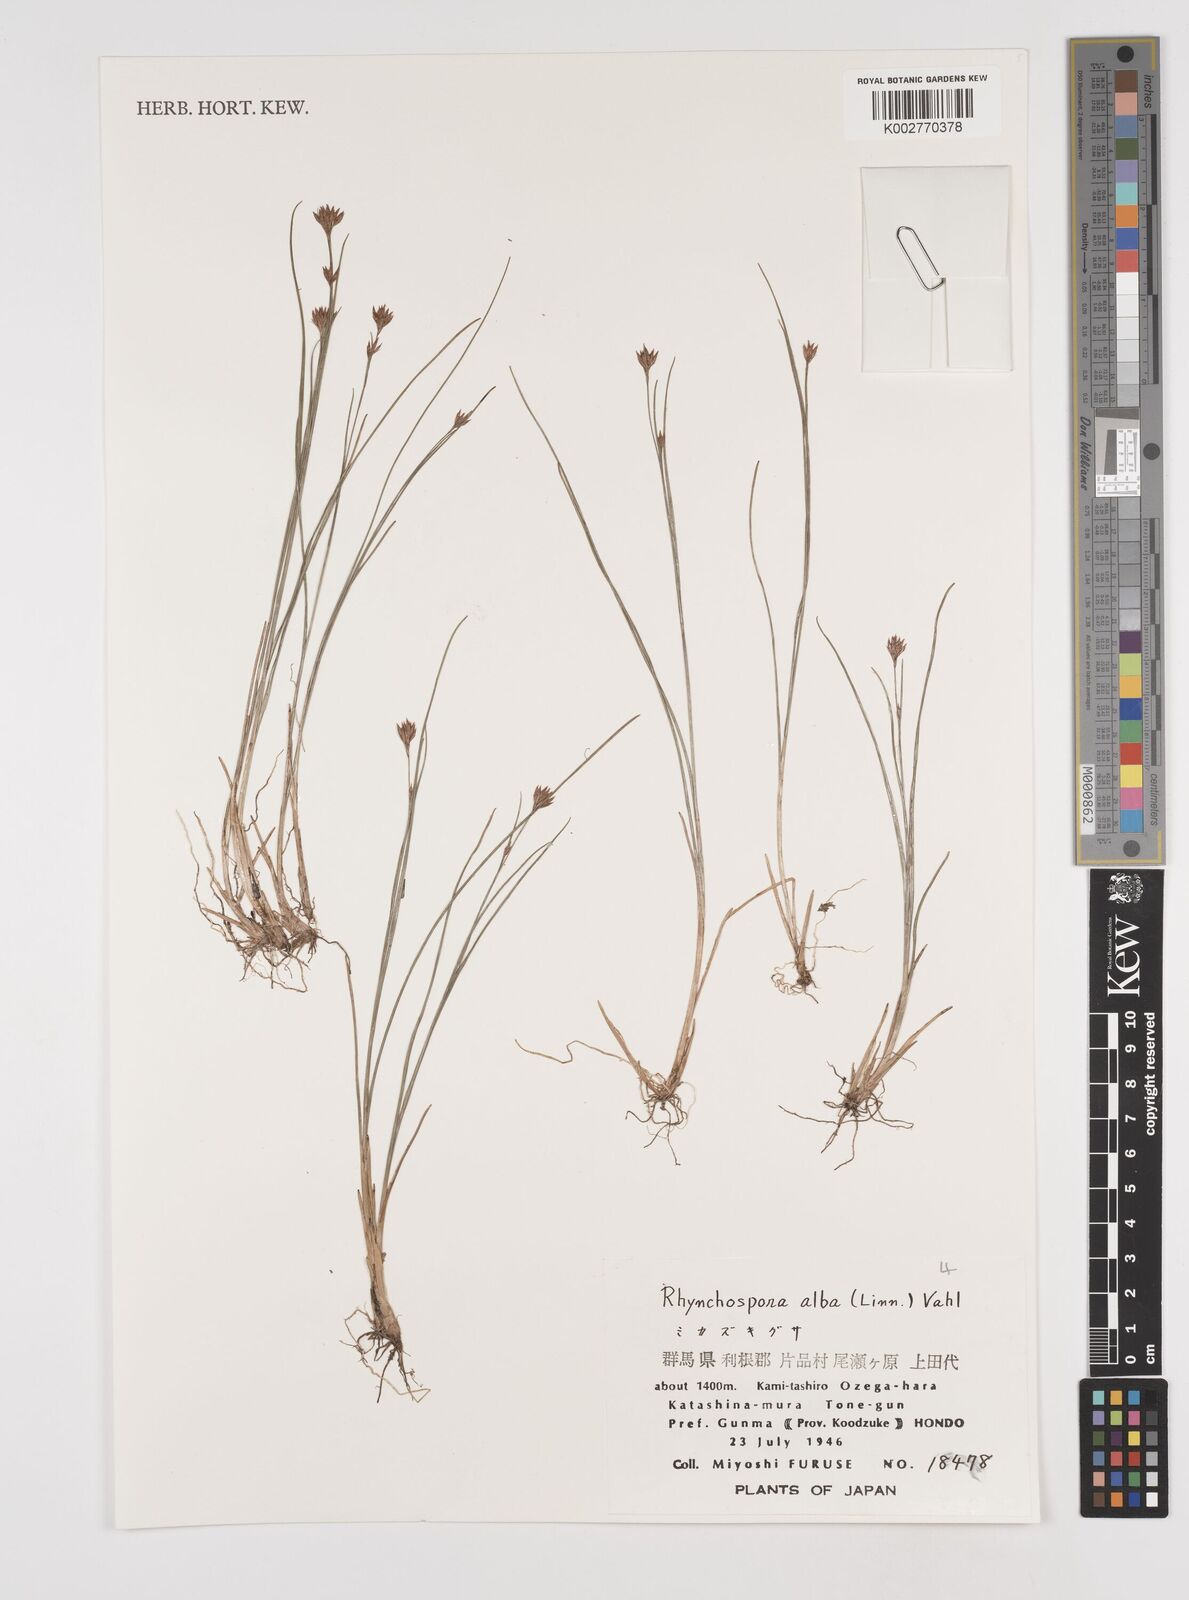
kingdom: Plantae
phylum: Tracheophyta
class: Liliopsida
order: Poales
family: Cyperaceae
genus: Rhynchospora
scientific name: Rhynchospora alba
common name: White beak-sedge
